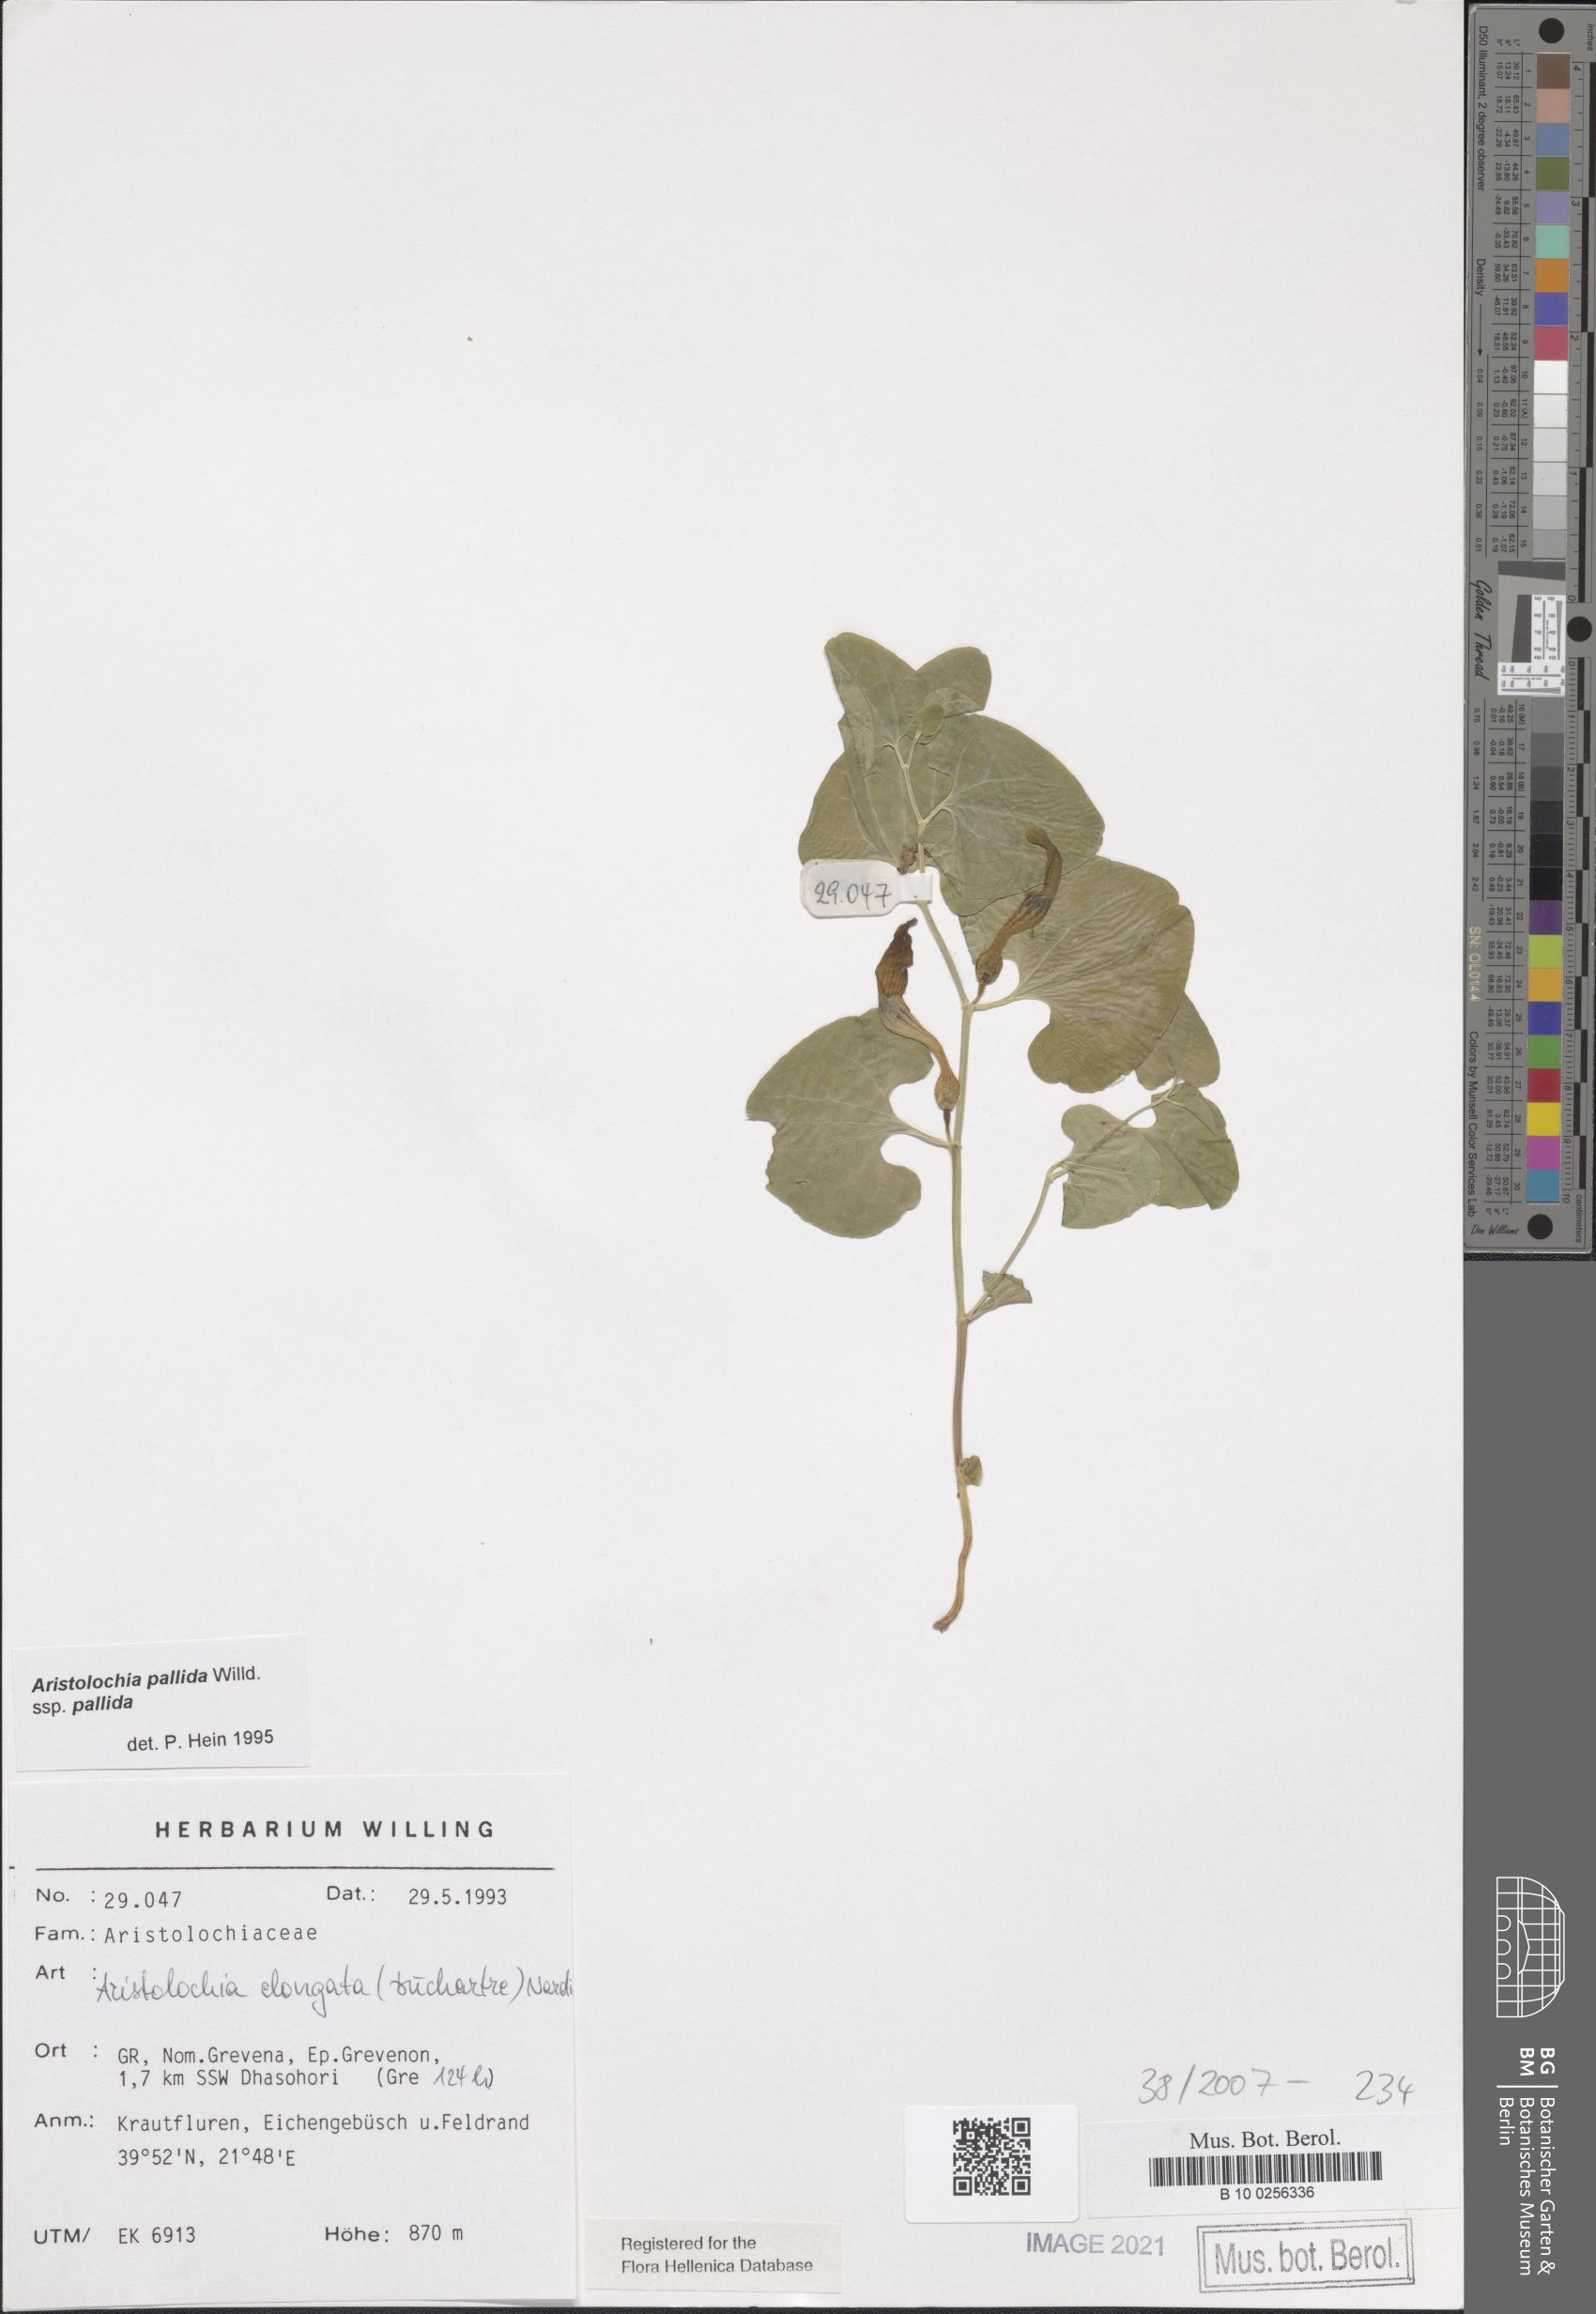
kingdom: Plantae
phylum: Tracheophyta
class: Magnoliopsida
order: Piperales
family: Aristolochiaceae
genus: Aristolochia
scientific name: Aristolochia nardiana
